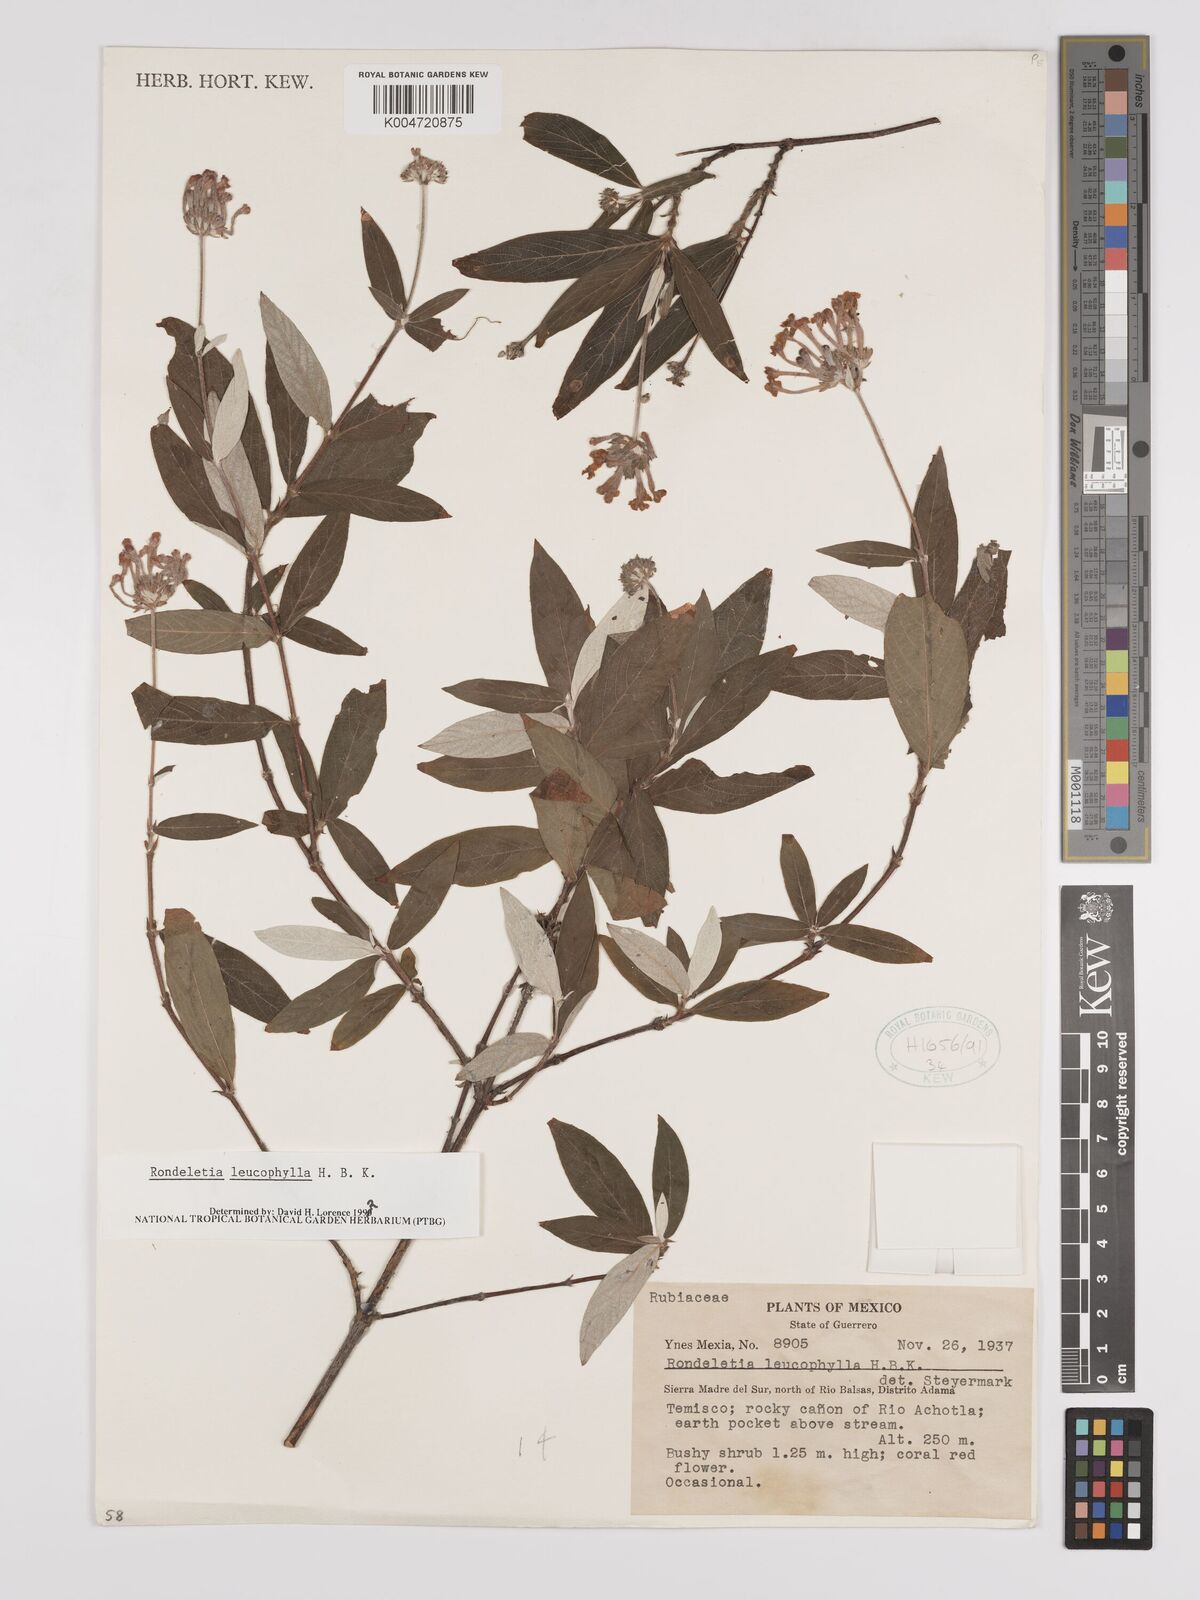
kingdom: Plantae
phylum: Tracheophyta
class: Magnoliopsida
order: Gentianales
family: Rubiaceae
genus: Arachnothryx
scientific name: Arachnothryx leucophylla
